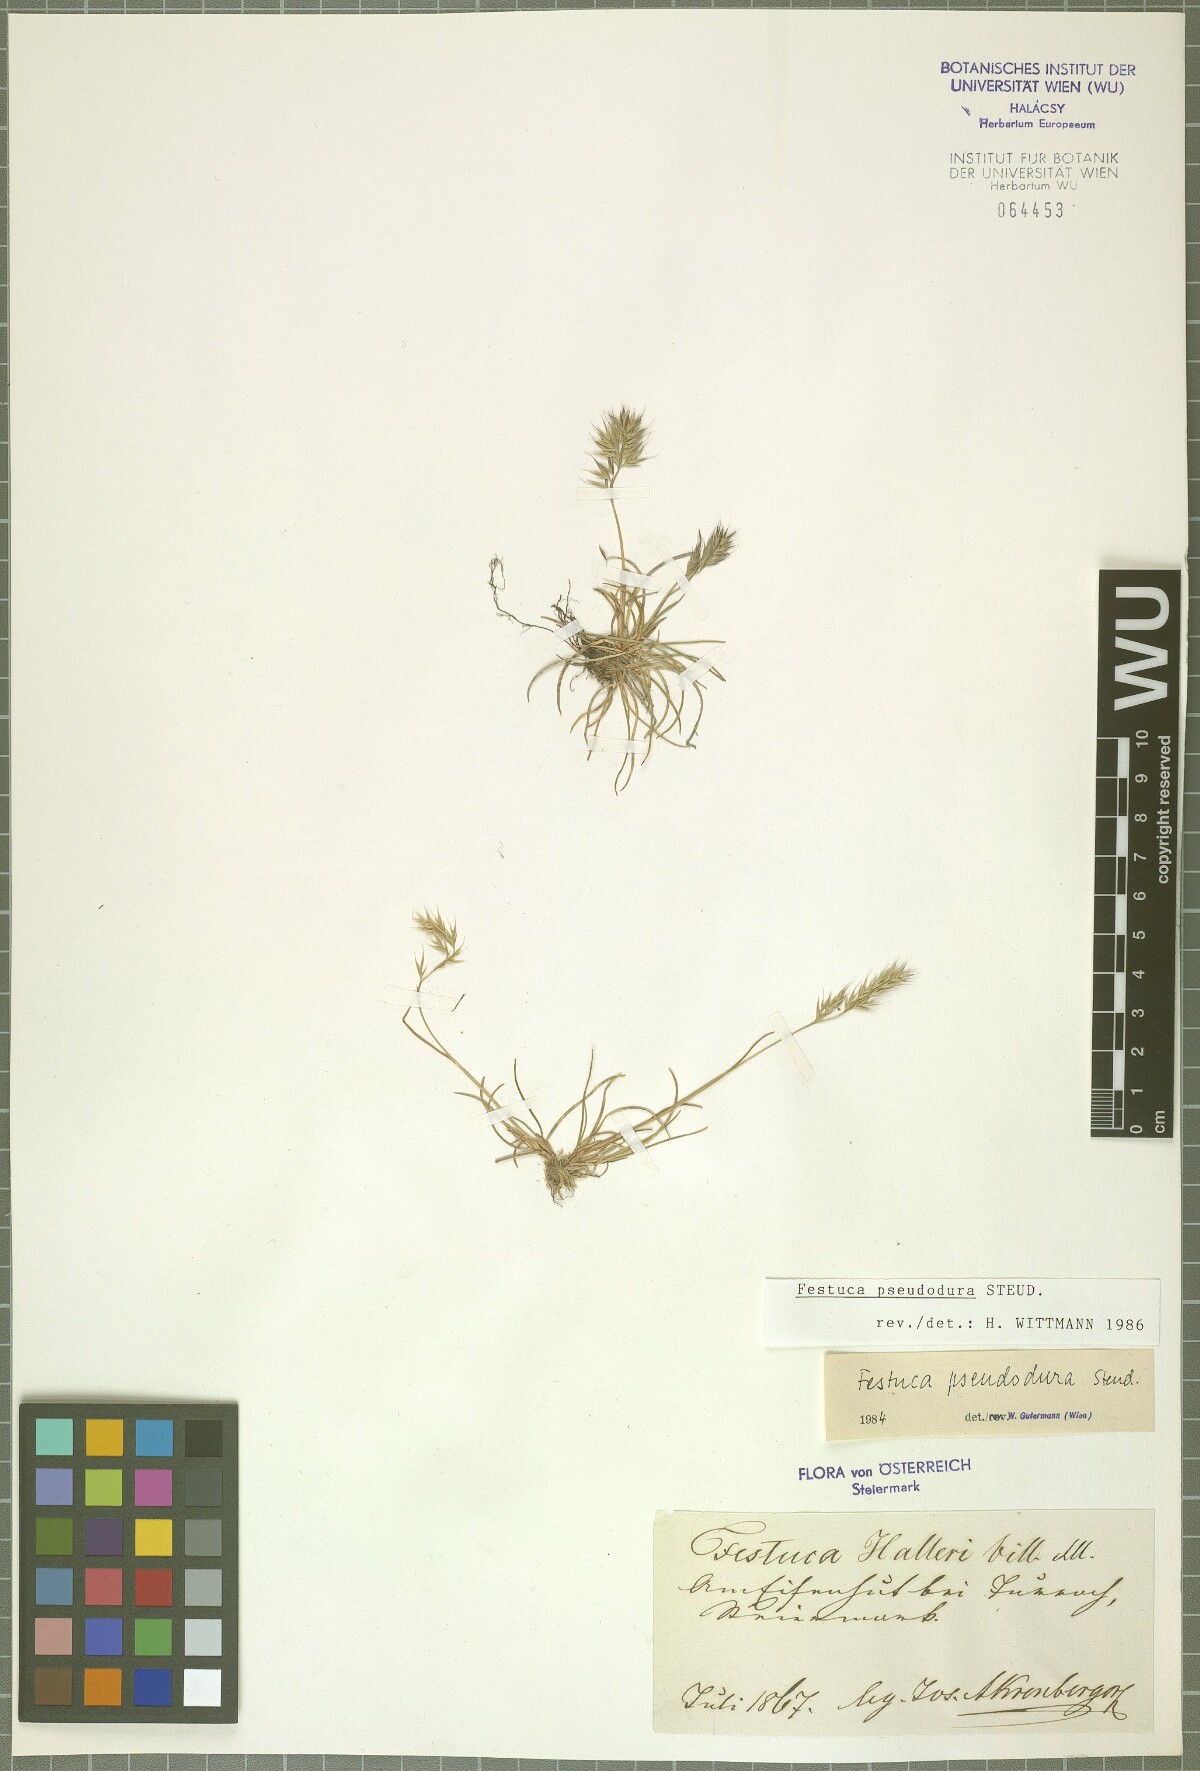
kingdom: Plantae
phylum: Tracheophyta
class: Liliopsida
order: Poales
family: Poaceae
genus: Festuca
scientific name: Festuca pseudodura
